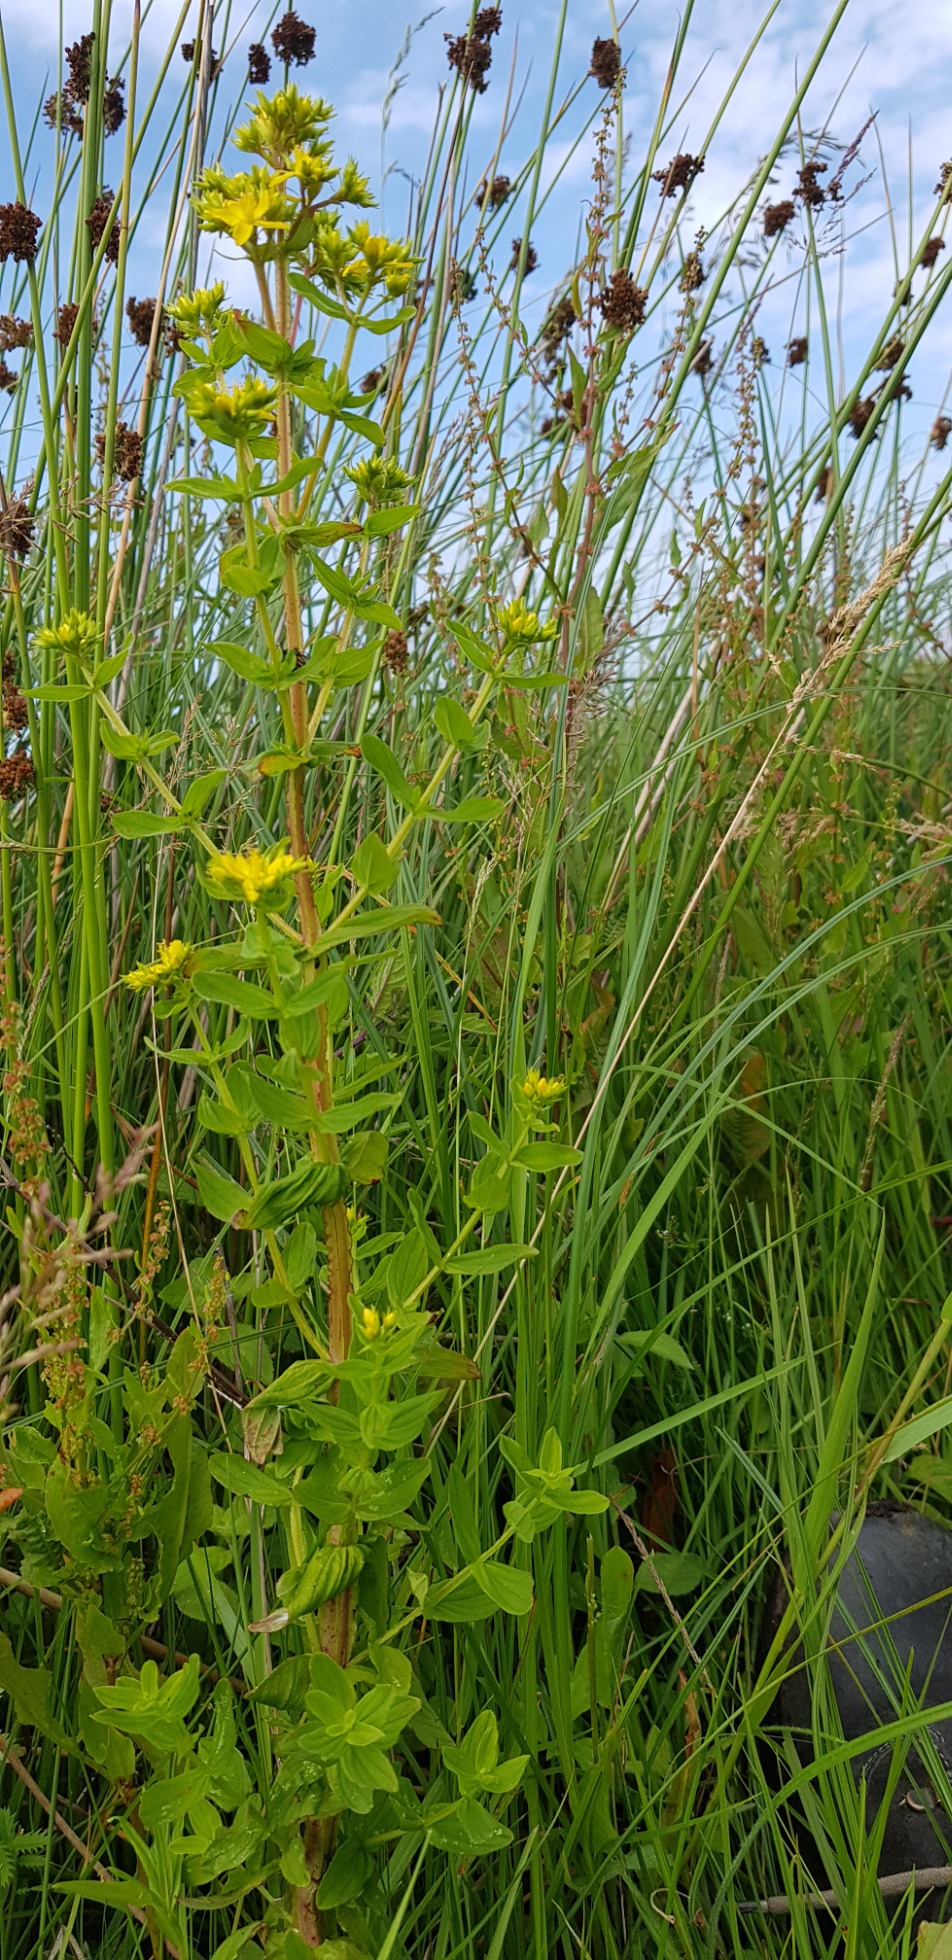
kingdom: Plantae
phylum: Tracheophyta
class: Magnoliopsida
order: Malpighiales
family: Hypericaceae
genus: Hypericum
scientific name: Hypericum tetrapterum
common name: Vinget perikon
